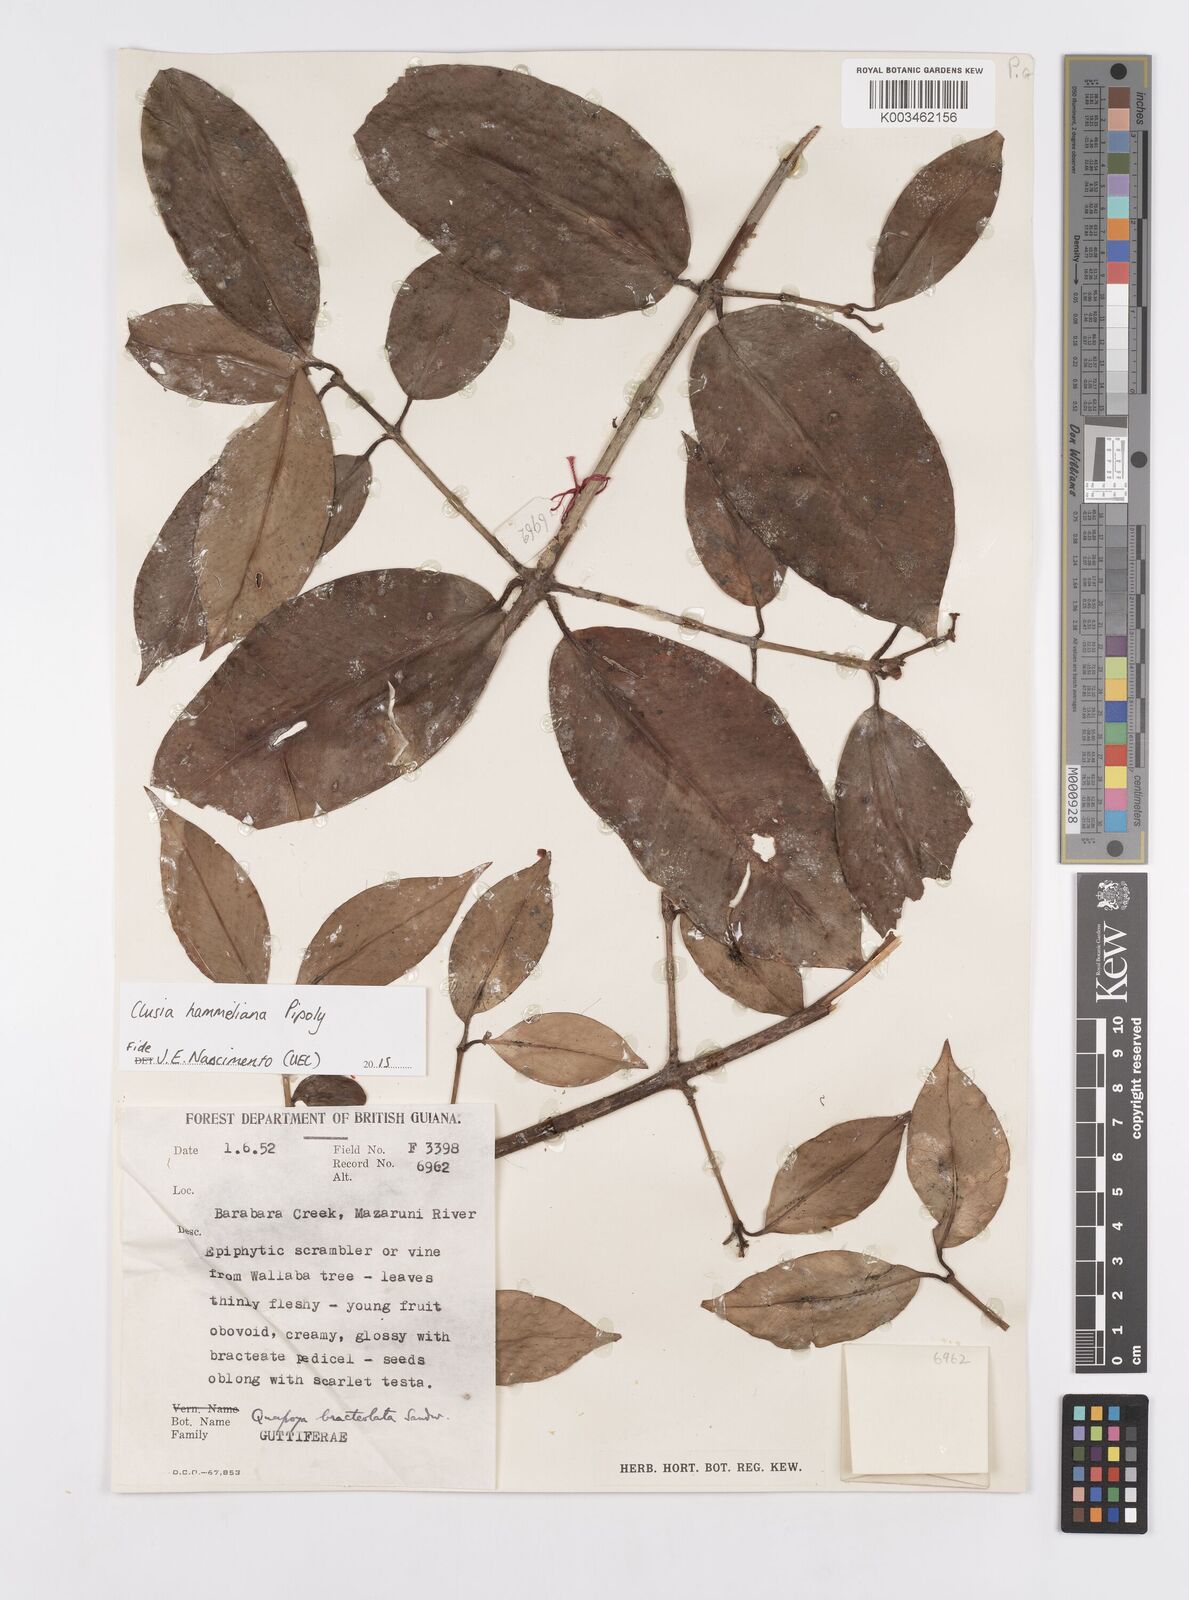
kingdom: Plantae
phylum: Tracheophyta
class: Magnoliopsida
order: Malpighiales
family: Clusiaceae
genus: Clusia
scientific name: Clusia hammeliana
